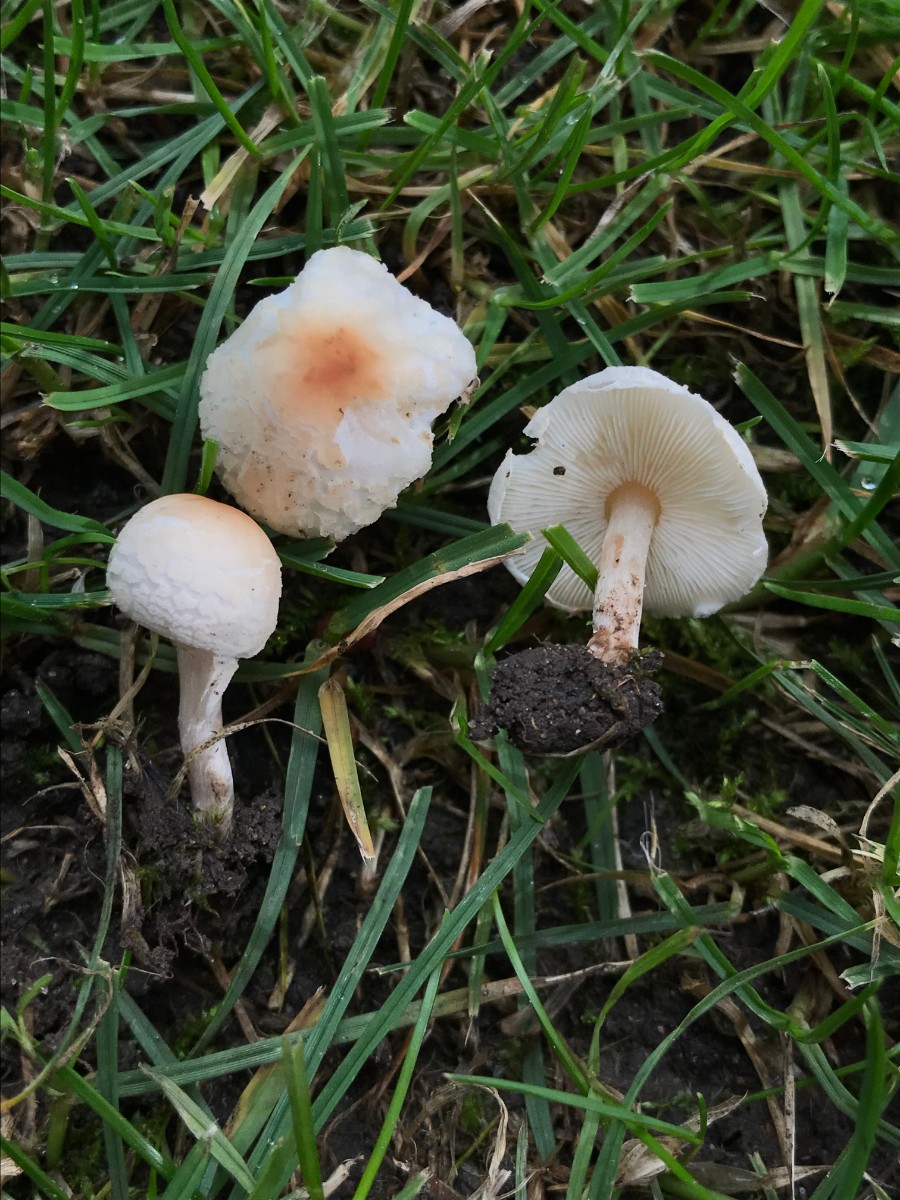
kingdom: Fungi
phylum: Basidiomycota
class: Agaricomycetes
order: Agaricales
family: Agaricaceae
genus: Lepiota
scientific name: Lepiota cristata
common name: stinkende parasolhat
